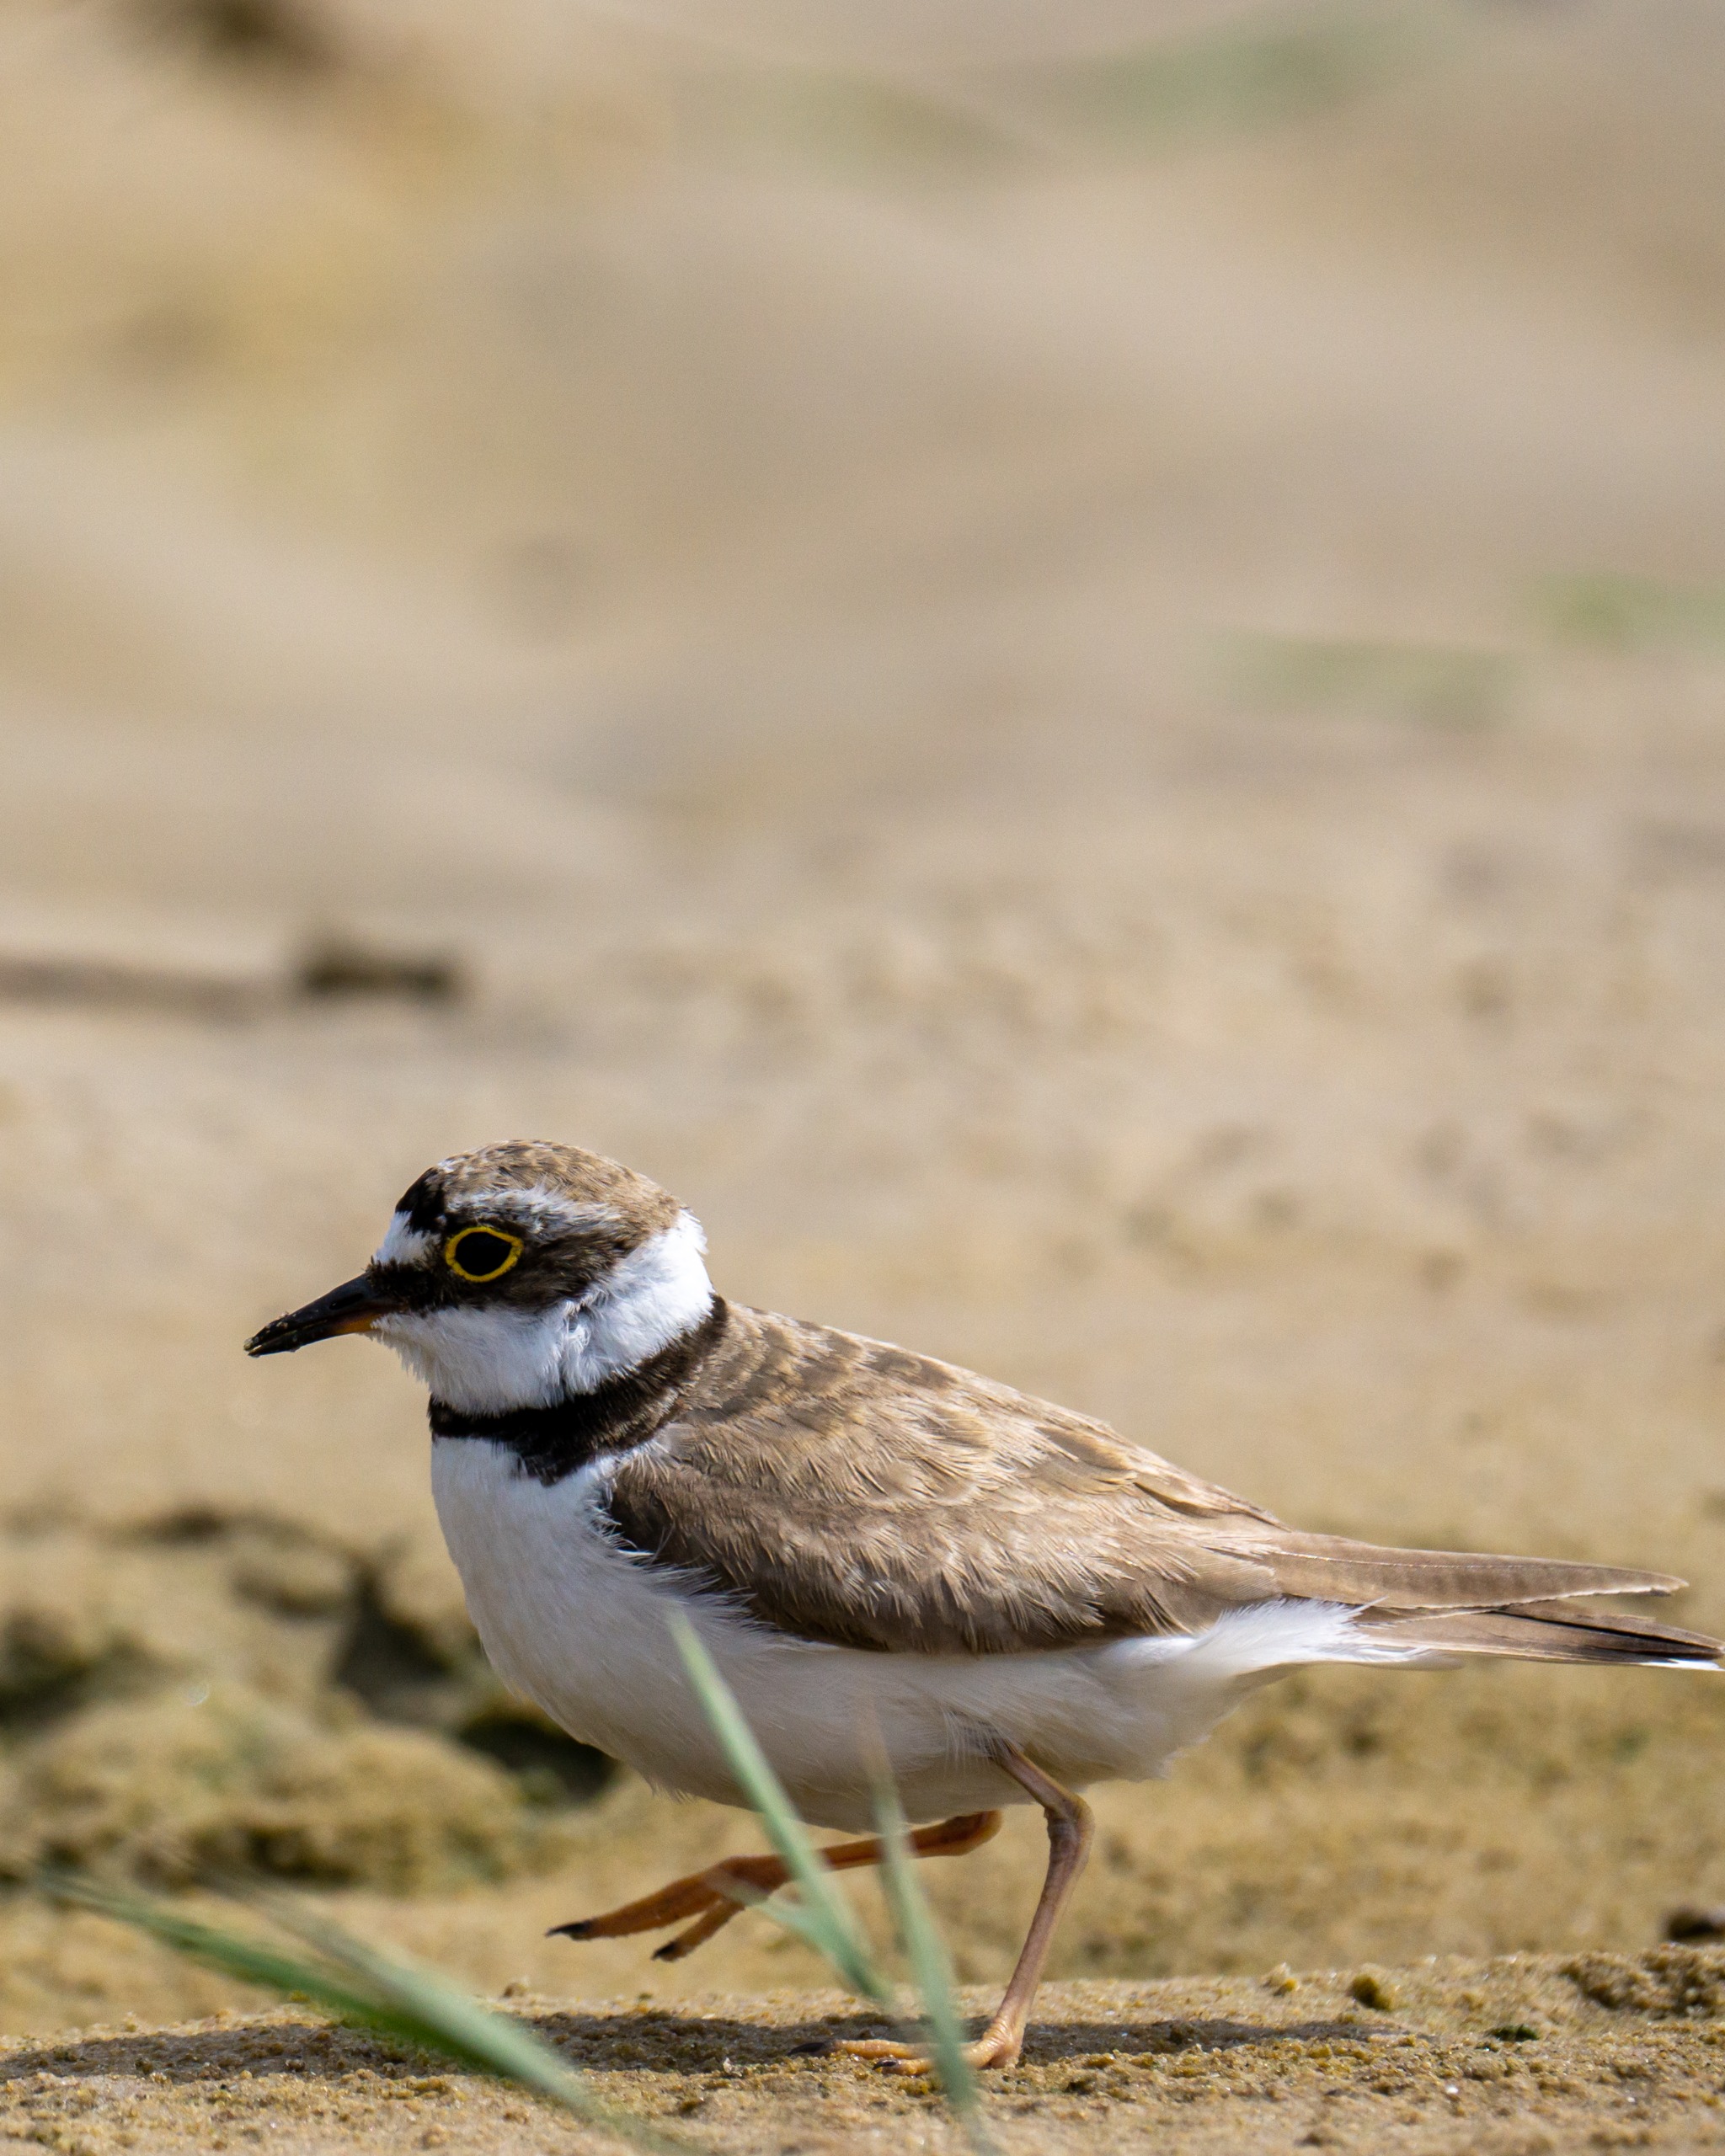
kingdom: Animalia
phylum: Chordata
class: Aves
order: Charadriiformes
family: Charadriidae
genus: Charadrius
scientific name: Charadrius dubius
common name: Lille præstekrave
